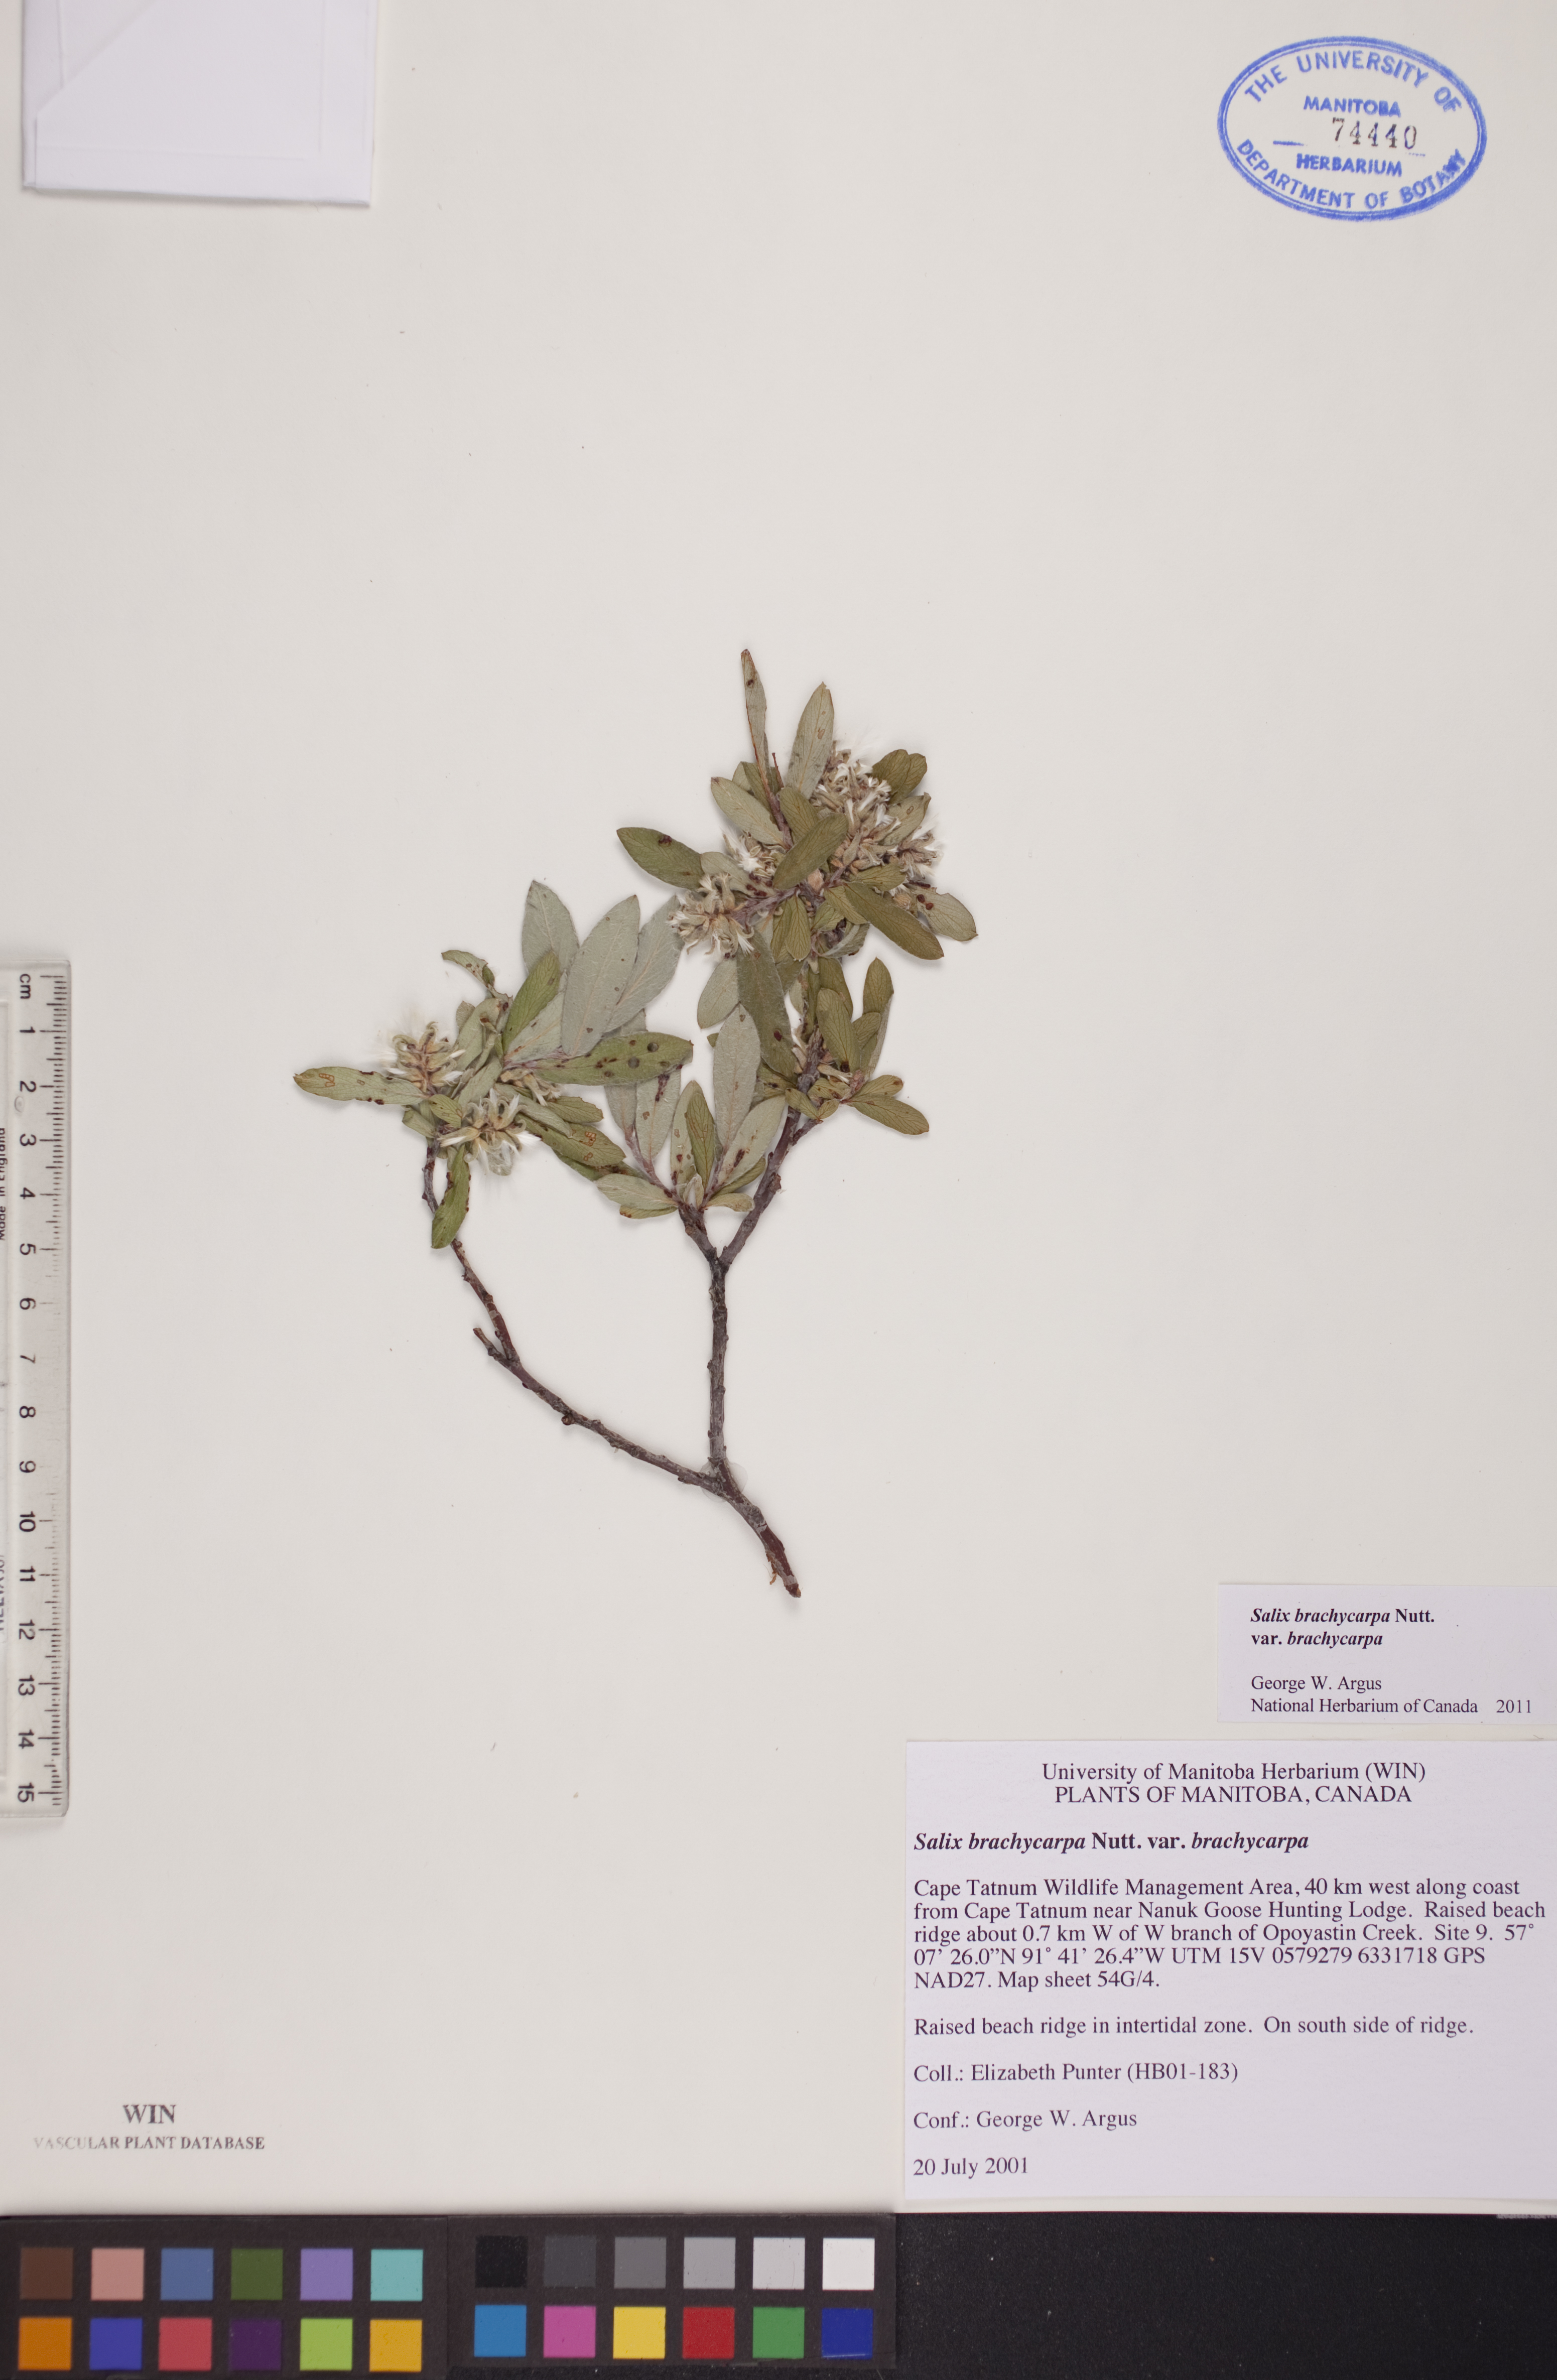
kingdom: Plantae
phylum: Tracheophyta
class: Magnoliopsida
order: Malpighiales
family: Salicaceae
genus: Salix
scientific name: Salix brachycarpa
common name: Barren-ground willow
